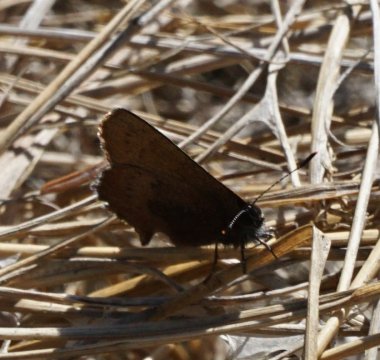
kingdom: Animalia
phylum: Arthropoda
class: Insecta
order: Lepidoptera
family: Lycaenidae
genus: Incisalia
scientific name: Incisalia irioides
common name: Brown Elfin
